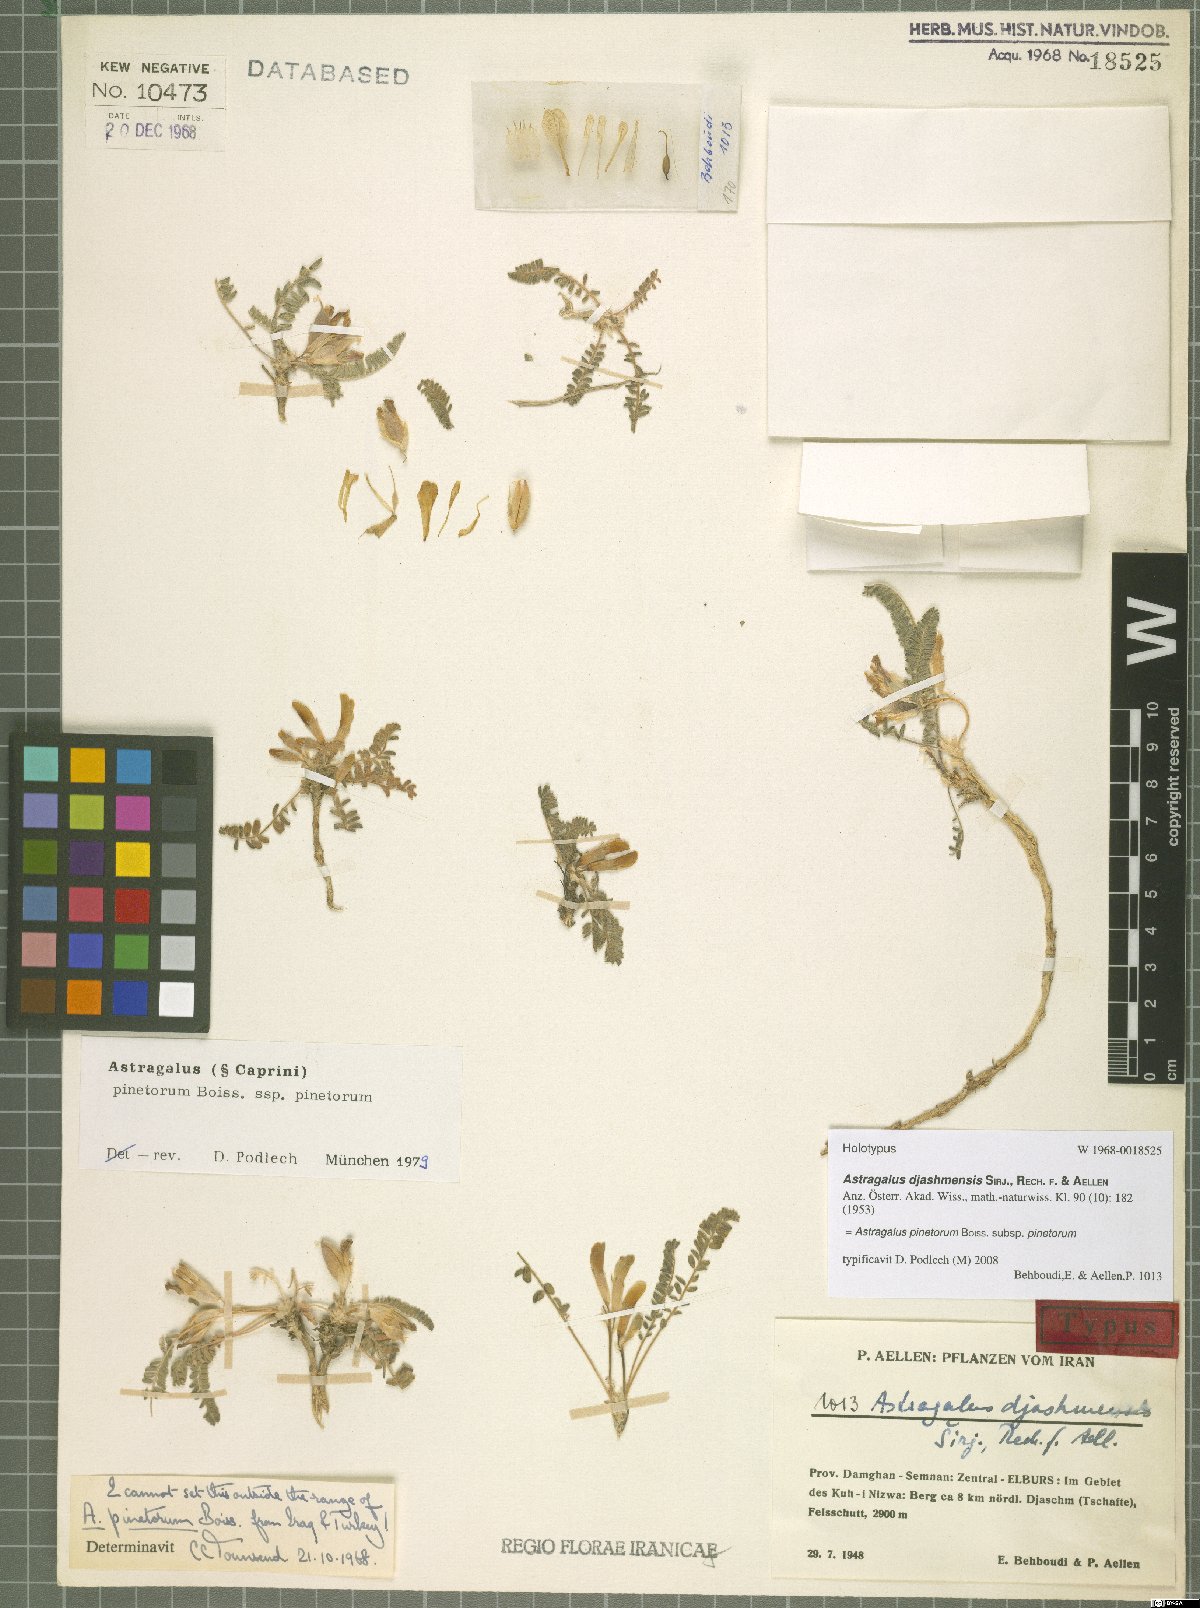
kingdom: Plantae
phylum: Tracheophyta
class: Magnoliopsida
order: Fabales
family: Fabaceae
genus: Astragalus
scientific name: Astragalus pinetorum
